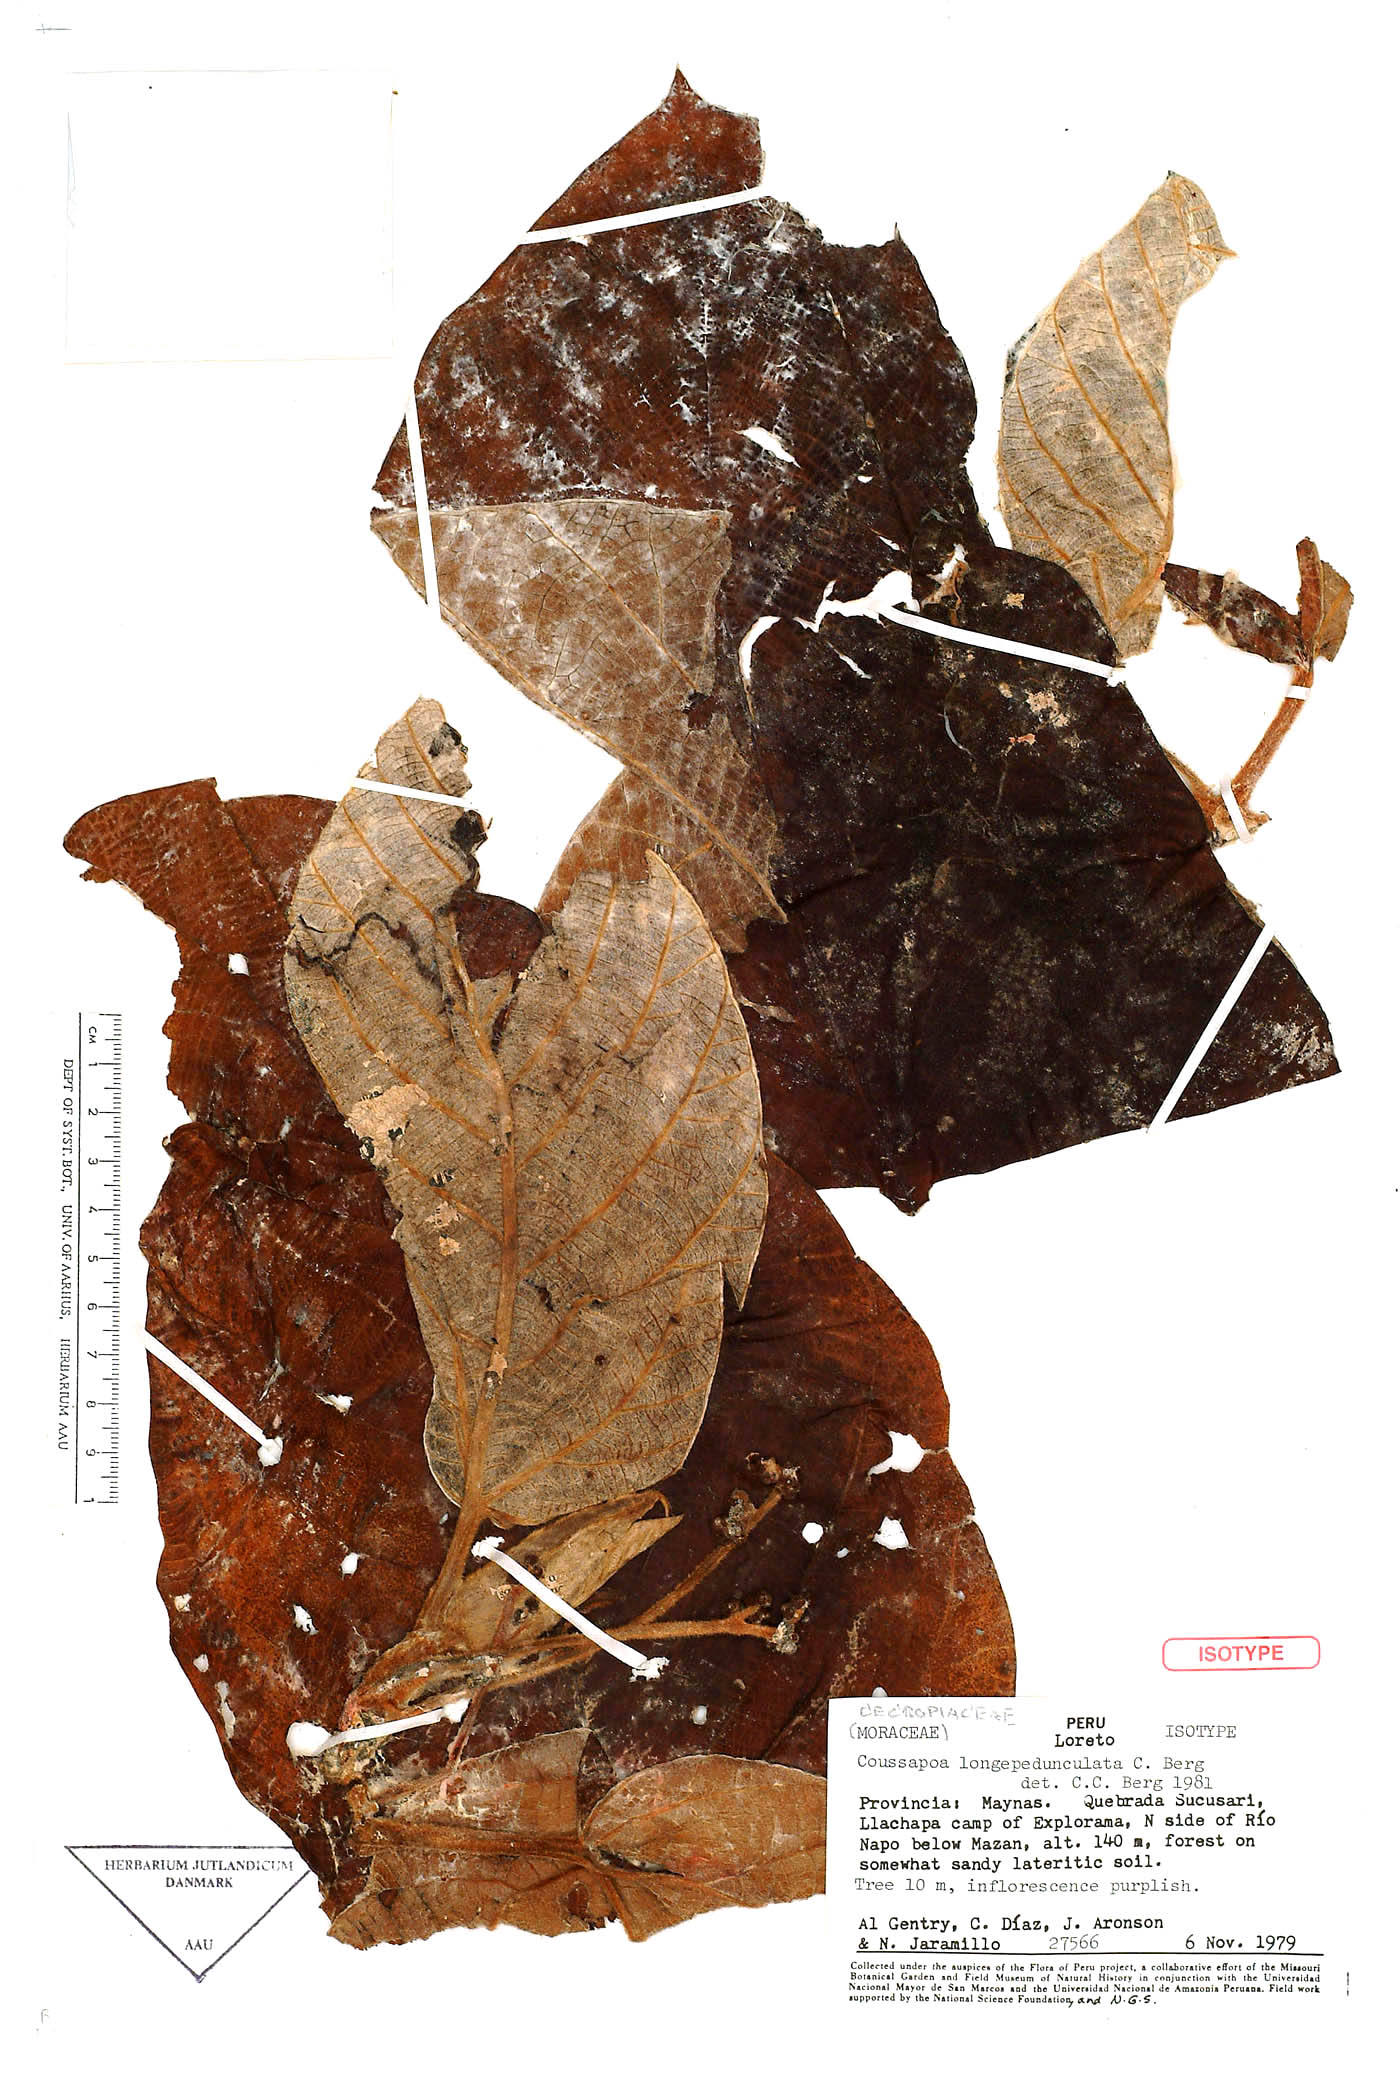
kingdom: Plantae
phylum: Tracheophyta
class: Magnoliopsida
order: Rosales
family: Urticaceae
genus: Coussapoa
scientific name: Coussapoa longepedunculata
